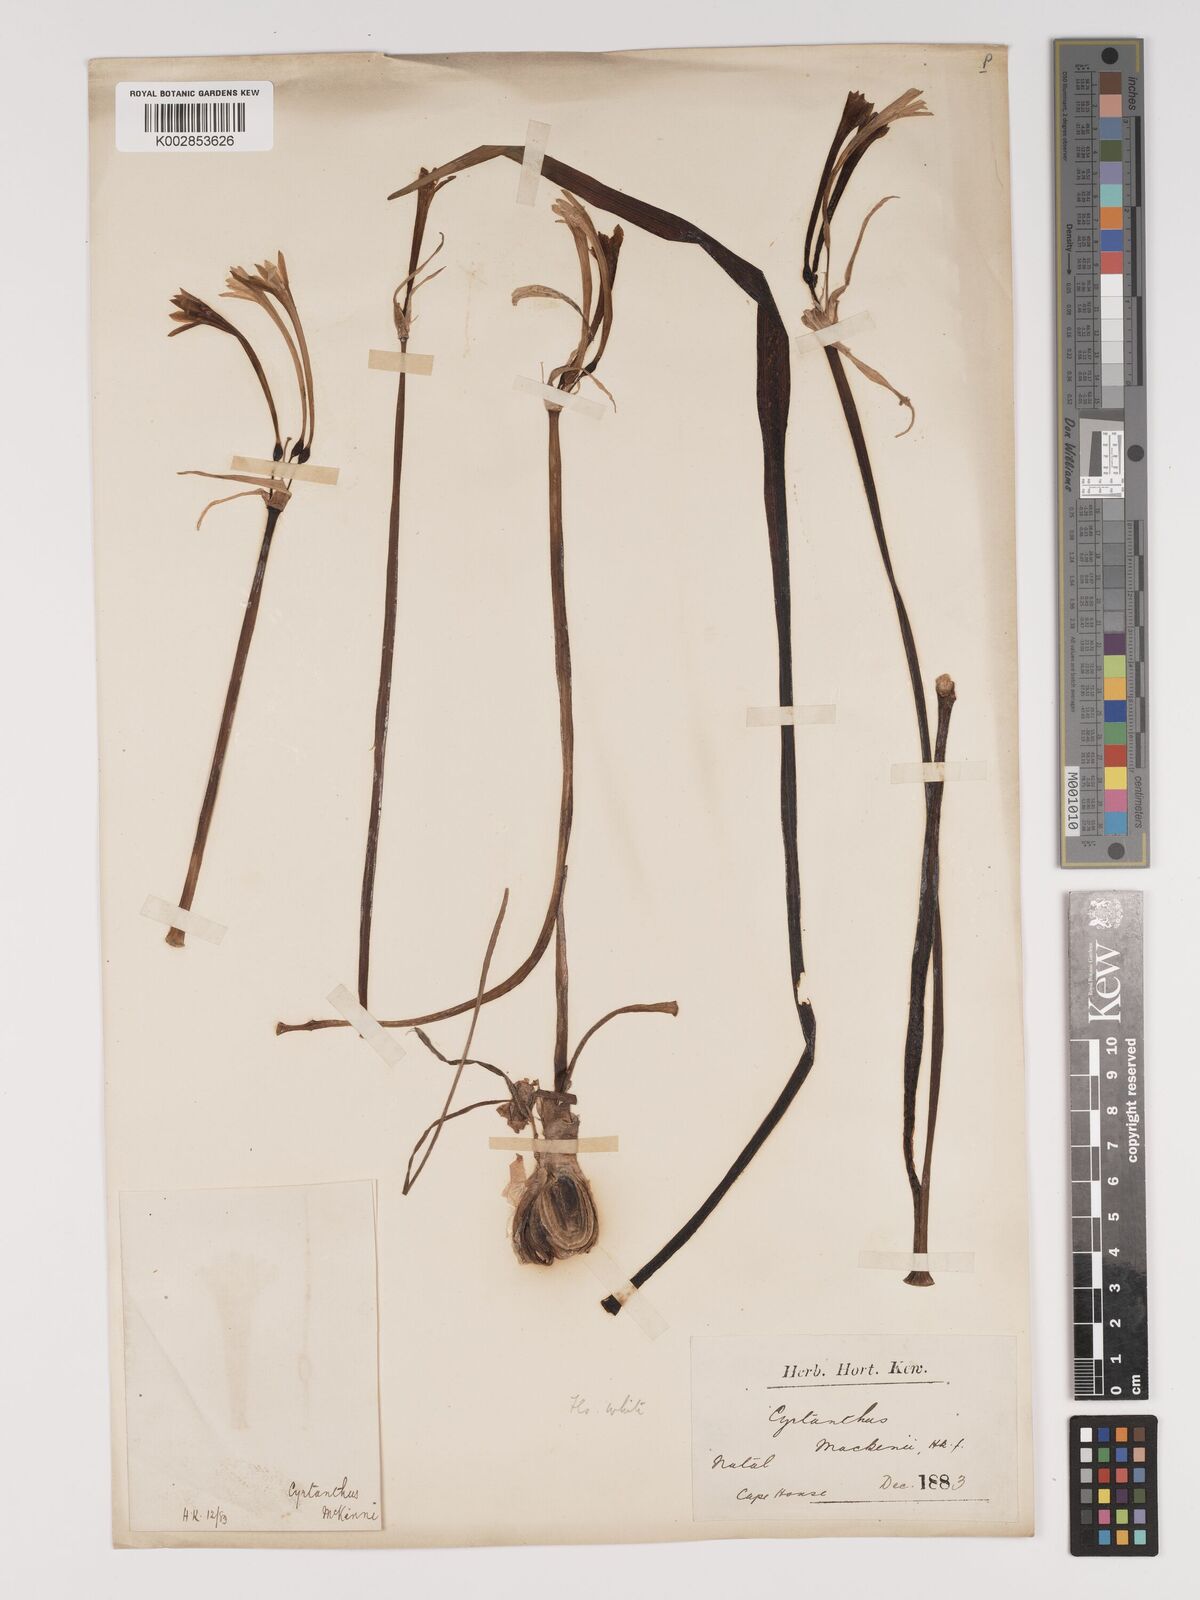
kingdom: Plantae
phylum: Tracheophyta
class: Liliopsida
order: Asparagales
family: Amaryllidaceae
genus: Cyrtanthus
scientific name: Cyrtanthus mackenii
